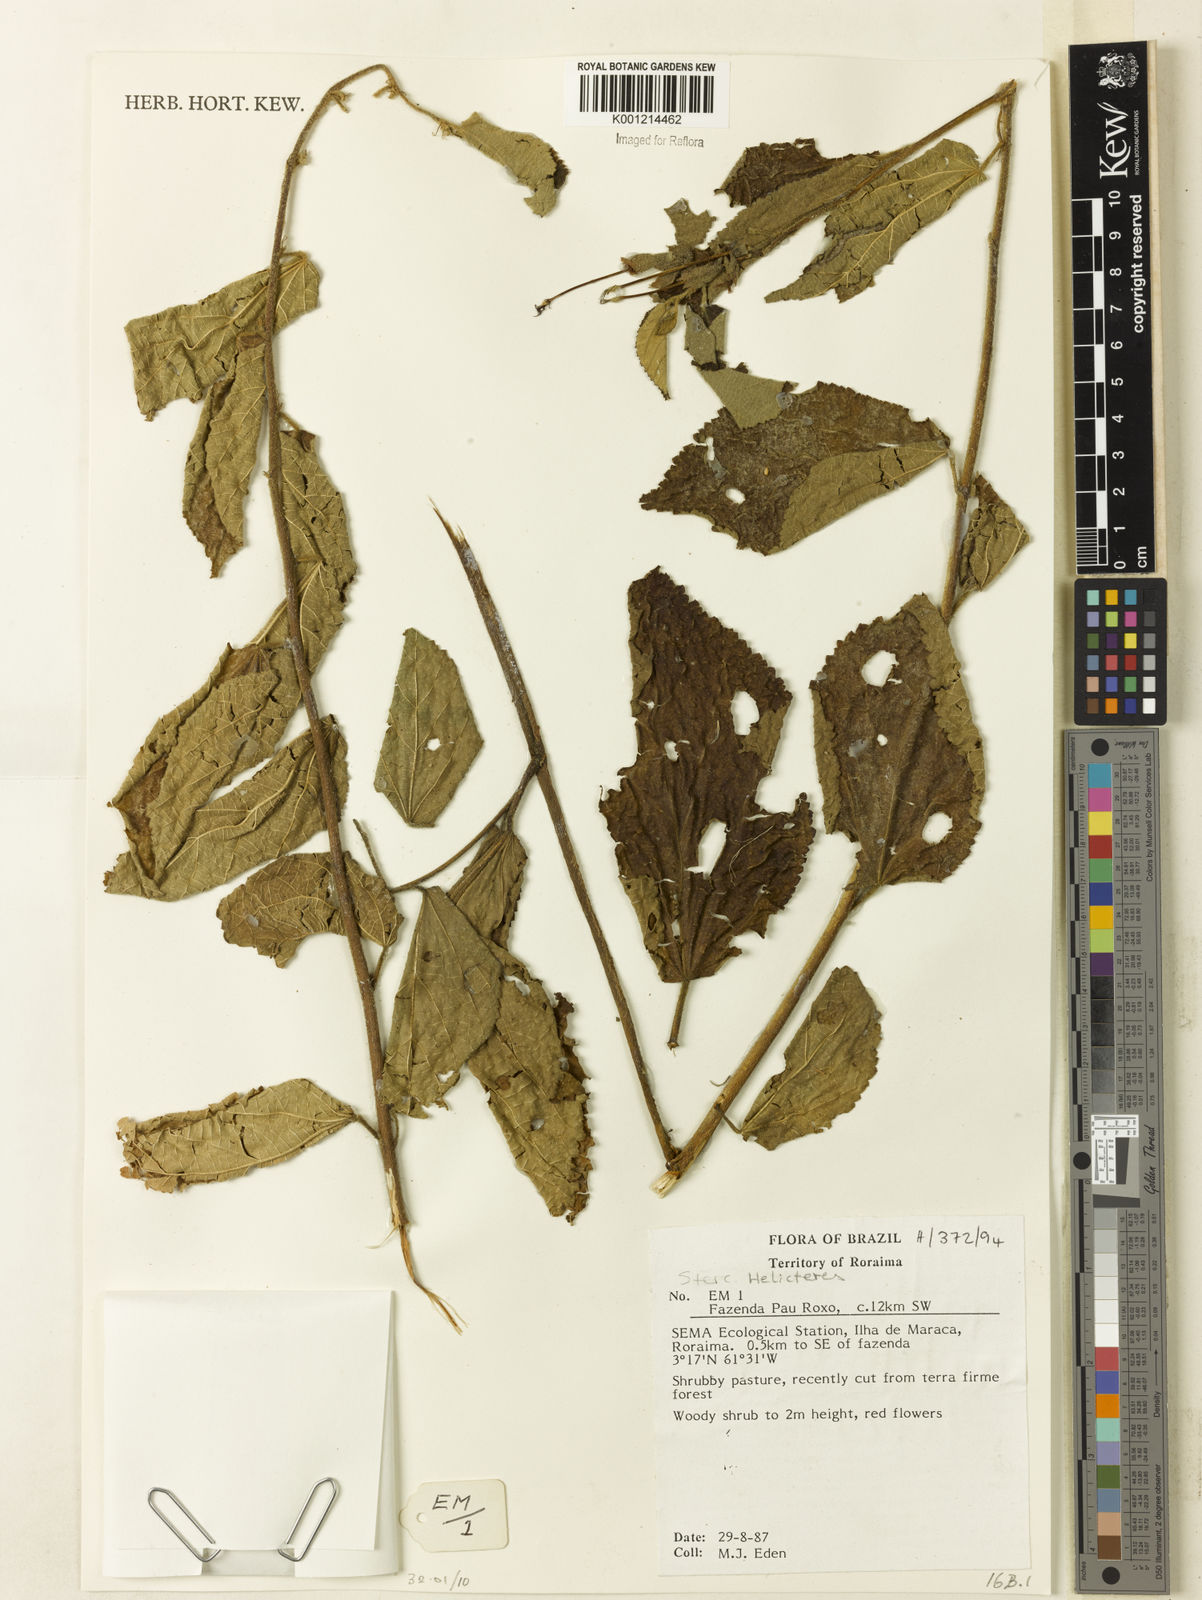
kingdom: Plantae
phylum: Tracheophyta
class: Magnoliopsida
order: Malvales
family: Malvaceae
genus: Helicteres
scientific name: Helicteres
